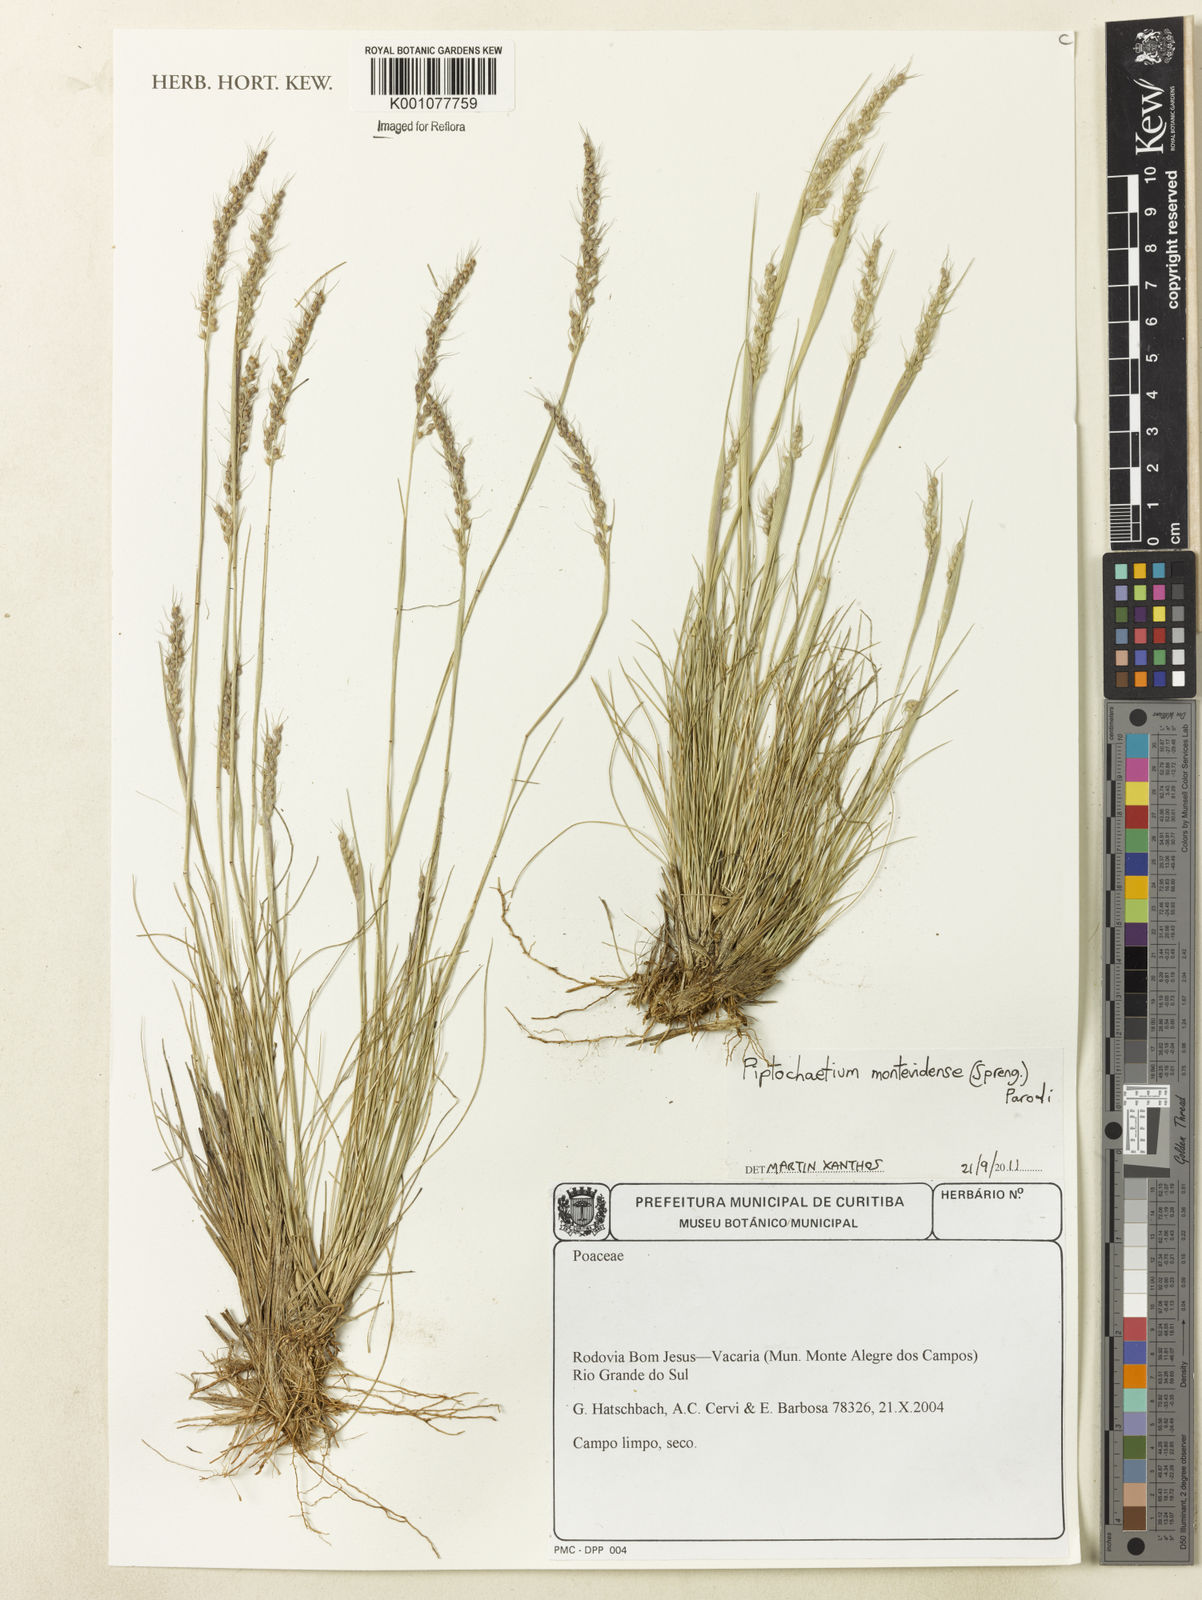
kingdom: Plantae
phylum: Tracheophyta
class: Liliopsida
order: Poales
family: Poaceae
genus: Piptochaetium
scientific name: Piptochaetium montevidense
